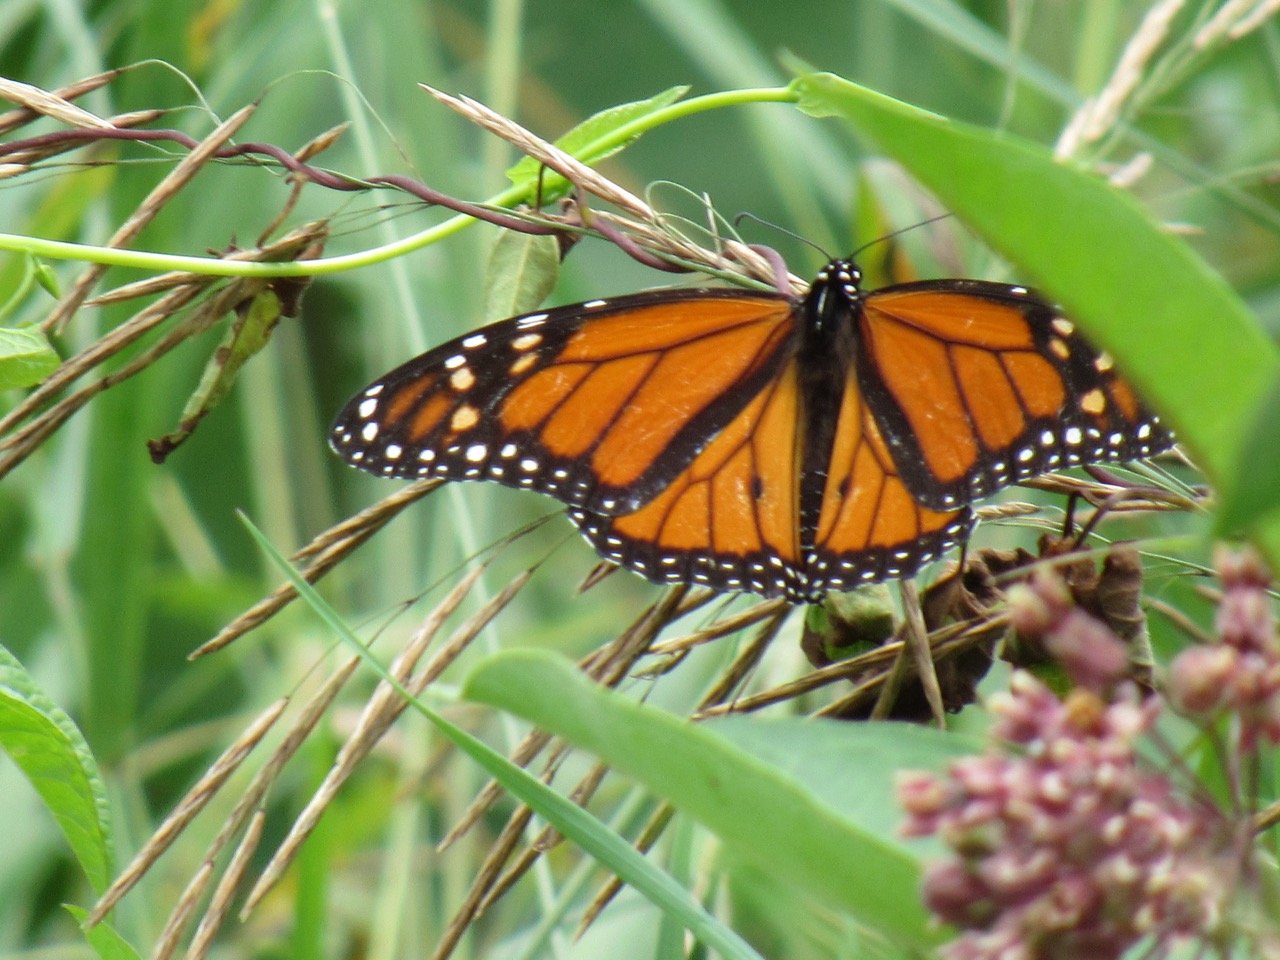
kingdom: Animalia
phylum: Arthropoda
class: Insecta
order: Lepidoptera
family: Nymphalidae
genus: Danaus
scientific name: Danaus plexippus
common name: Monarch
